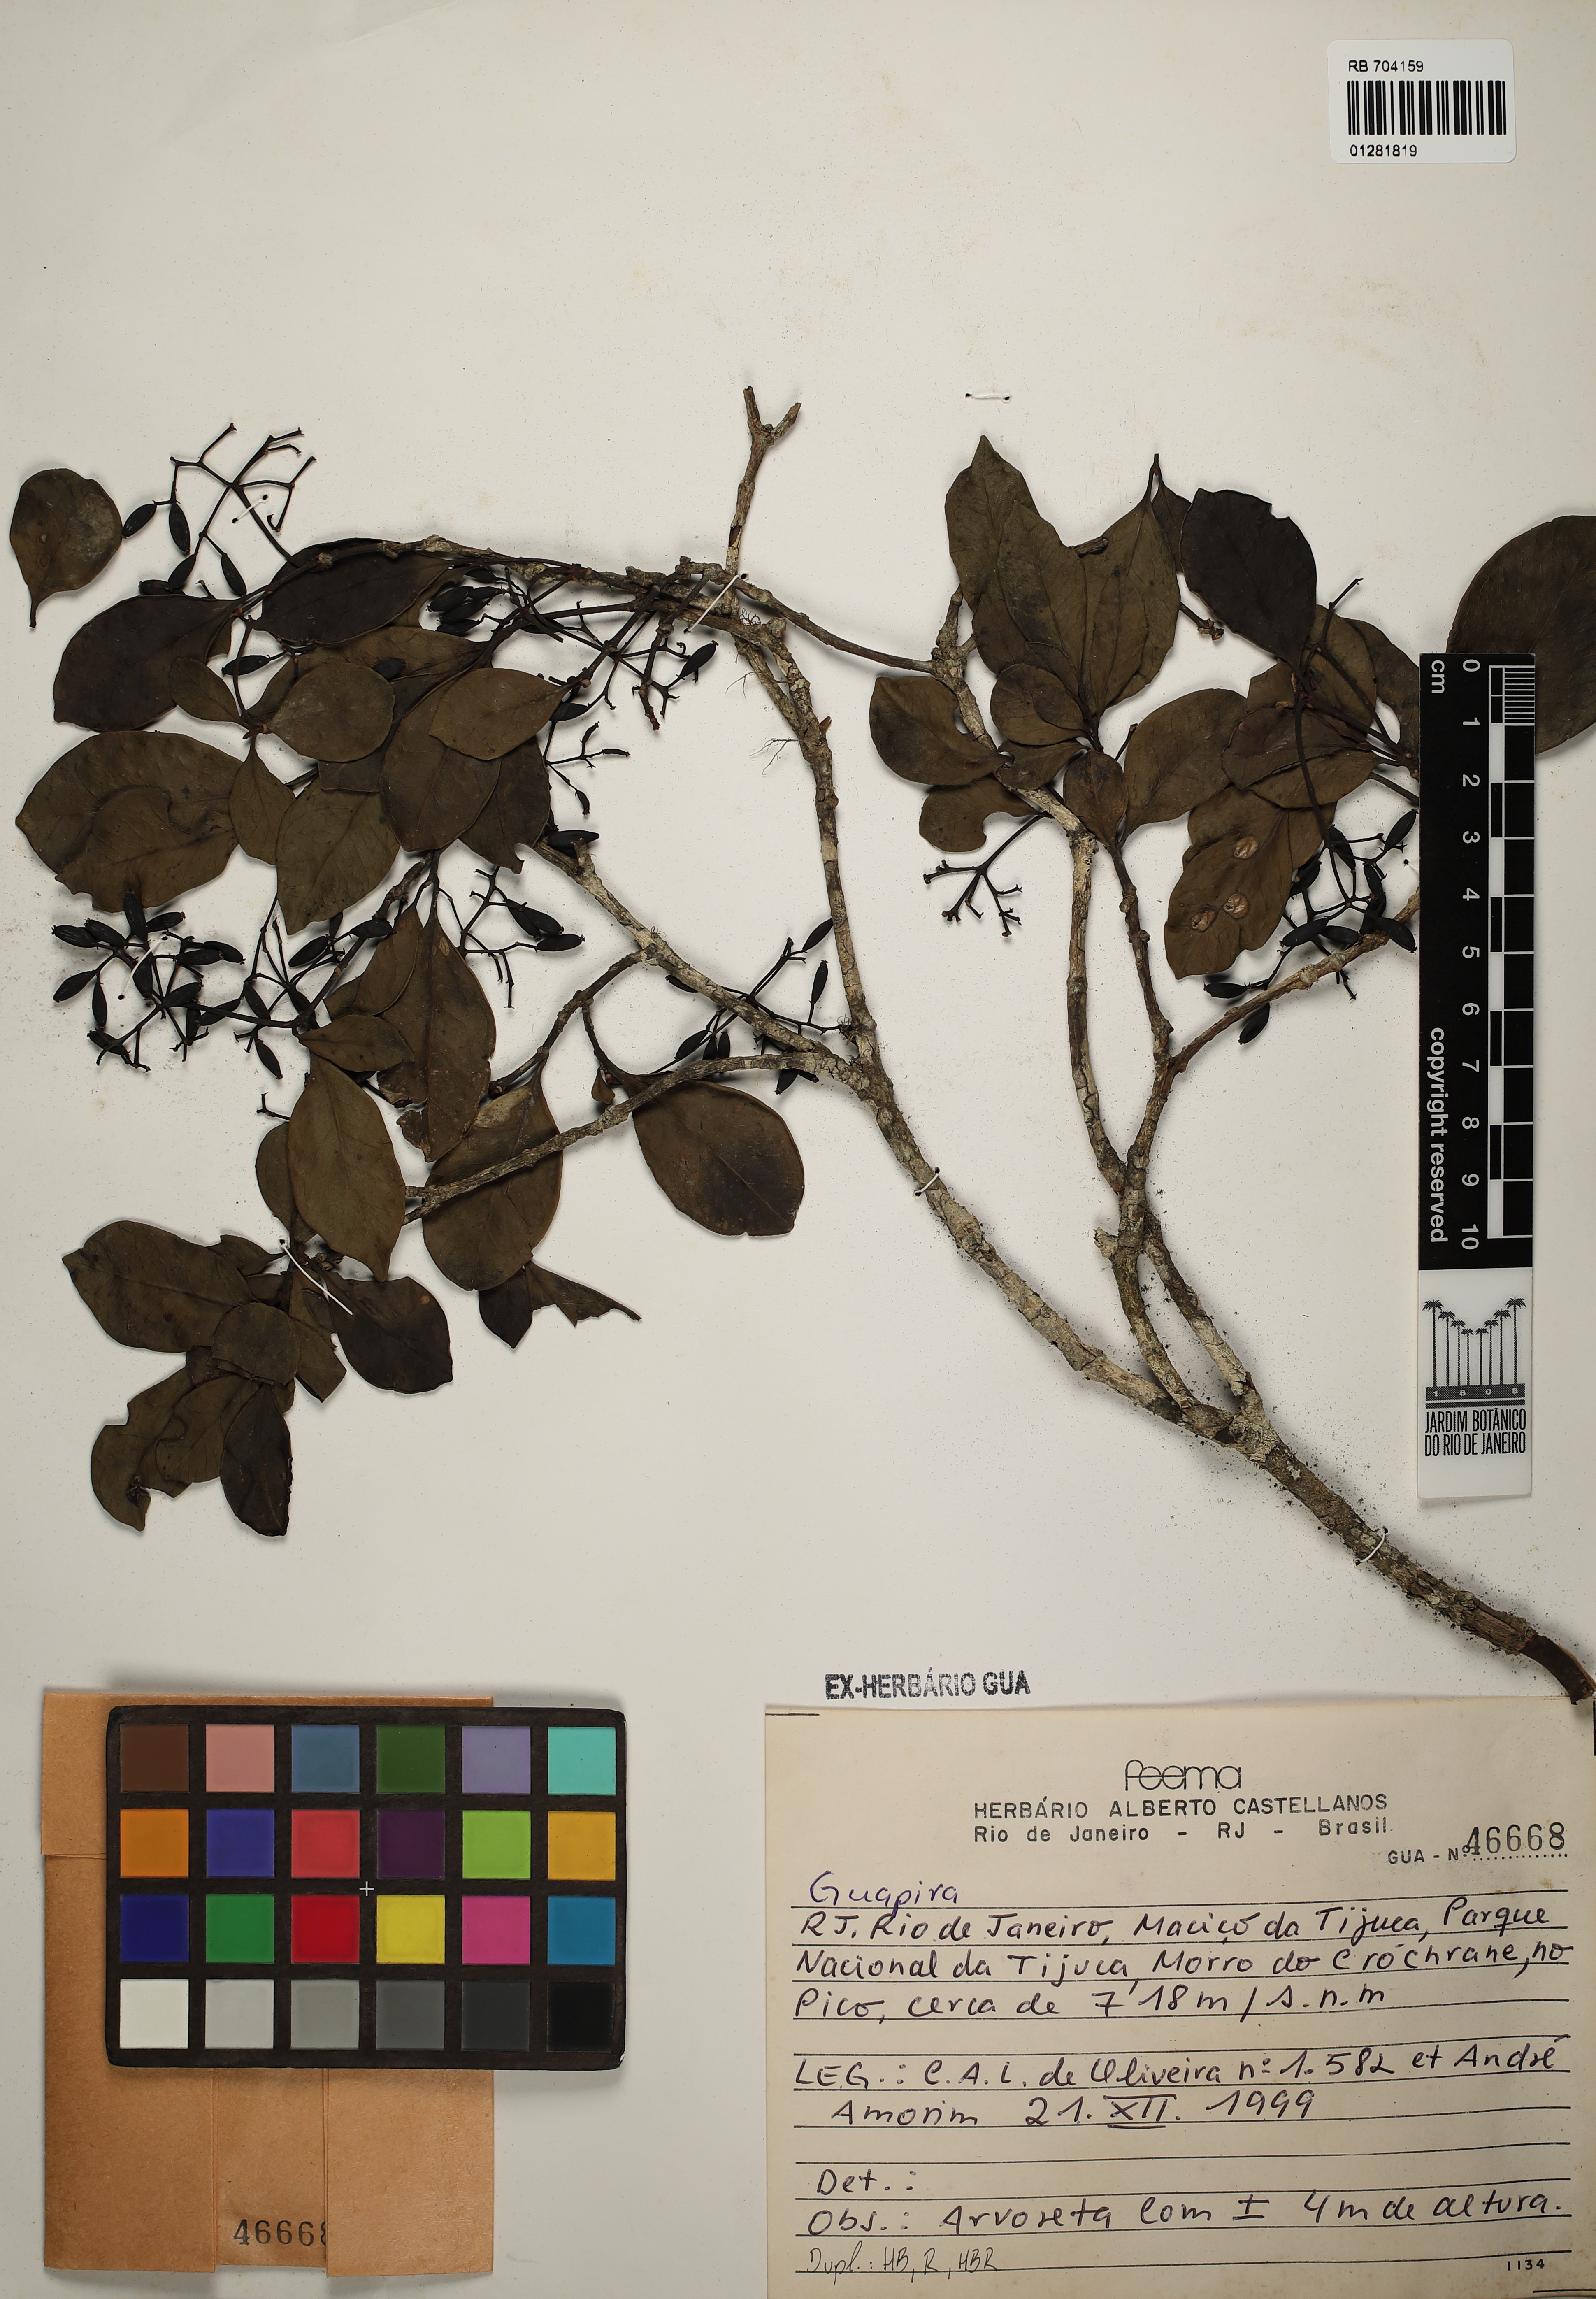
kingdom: Plantae
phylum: Tracheophyta
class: Magnoliopsida
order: Caryophyllales
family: Nyctaginaceae
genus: Guapira
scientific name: Guapira
